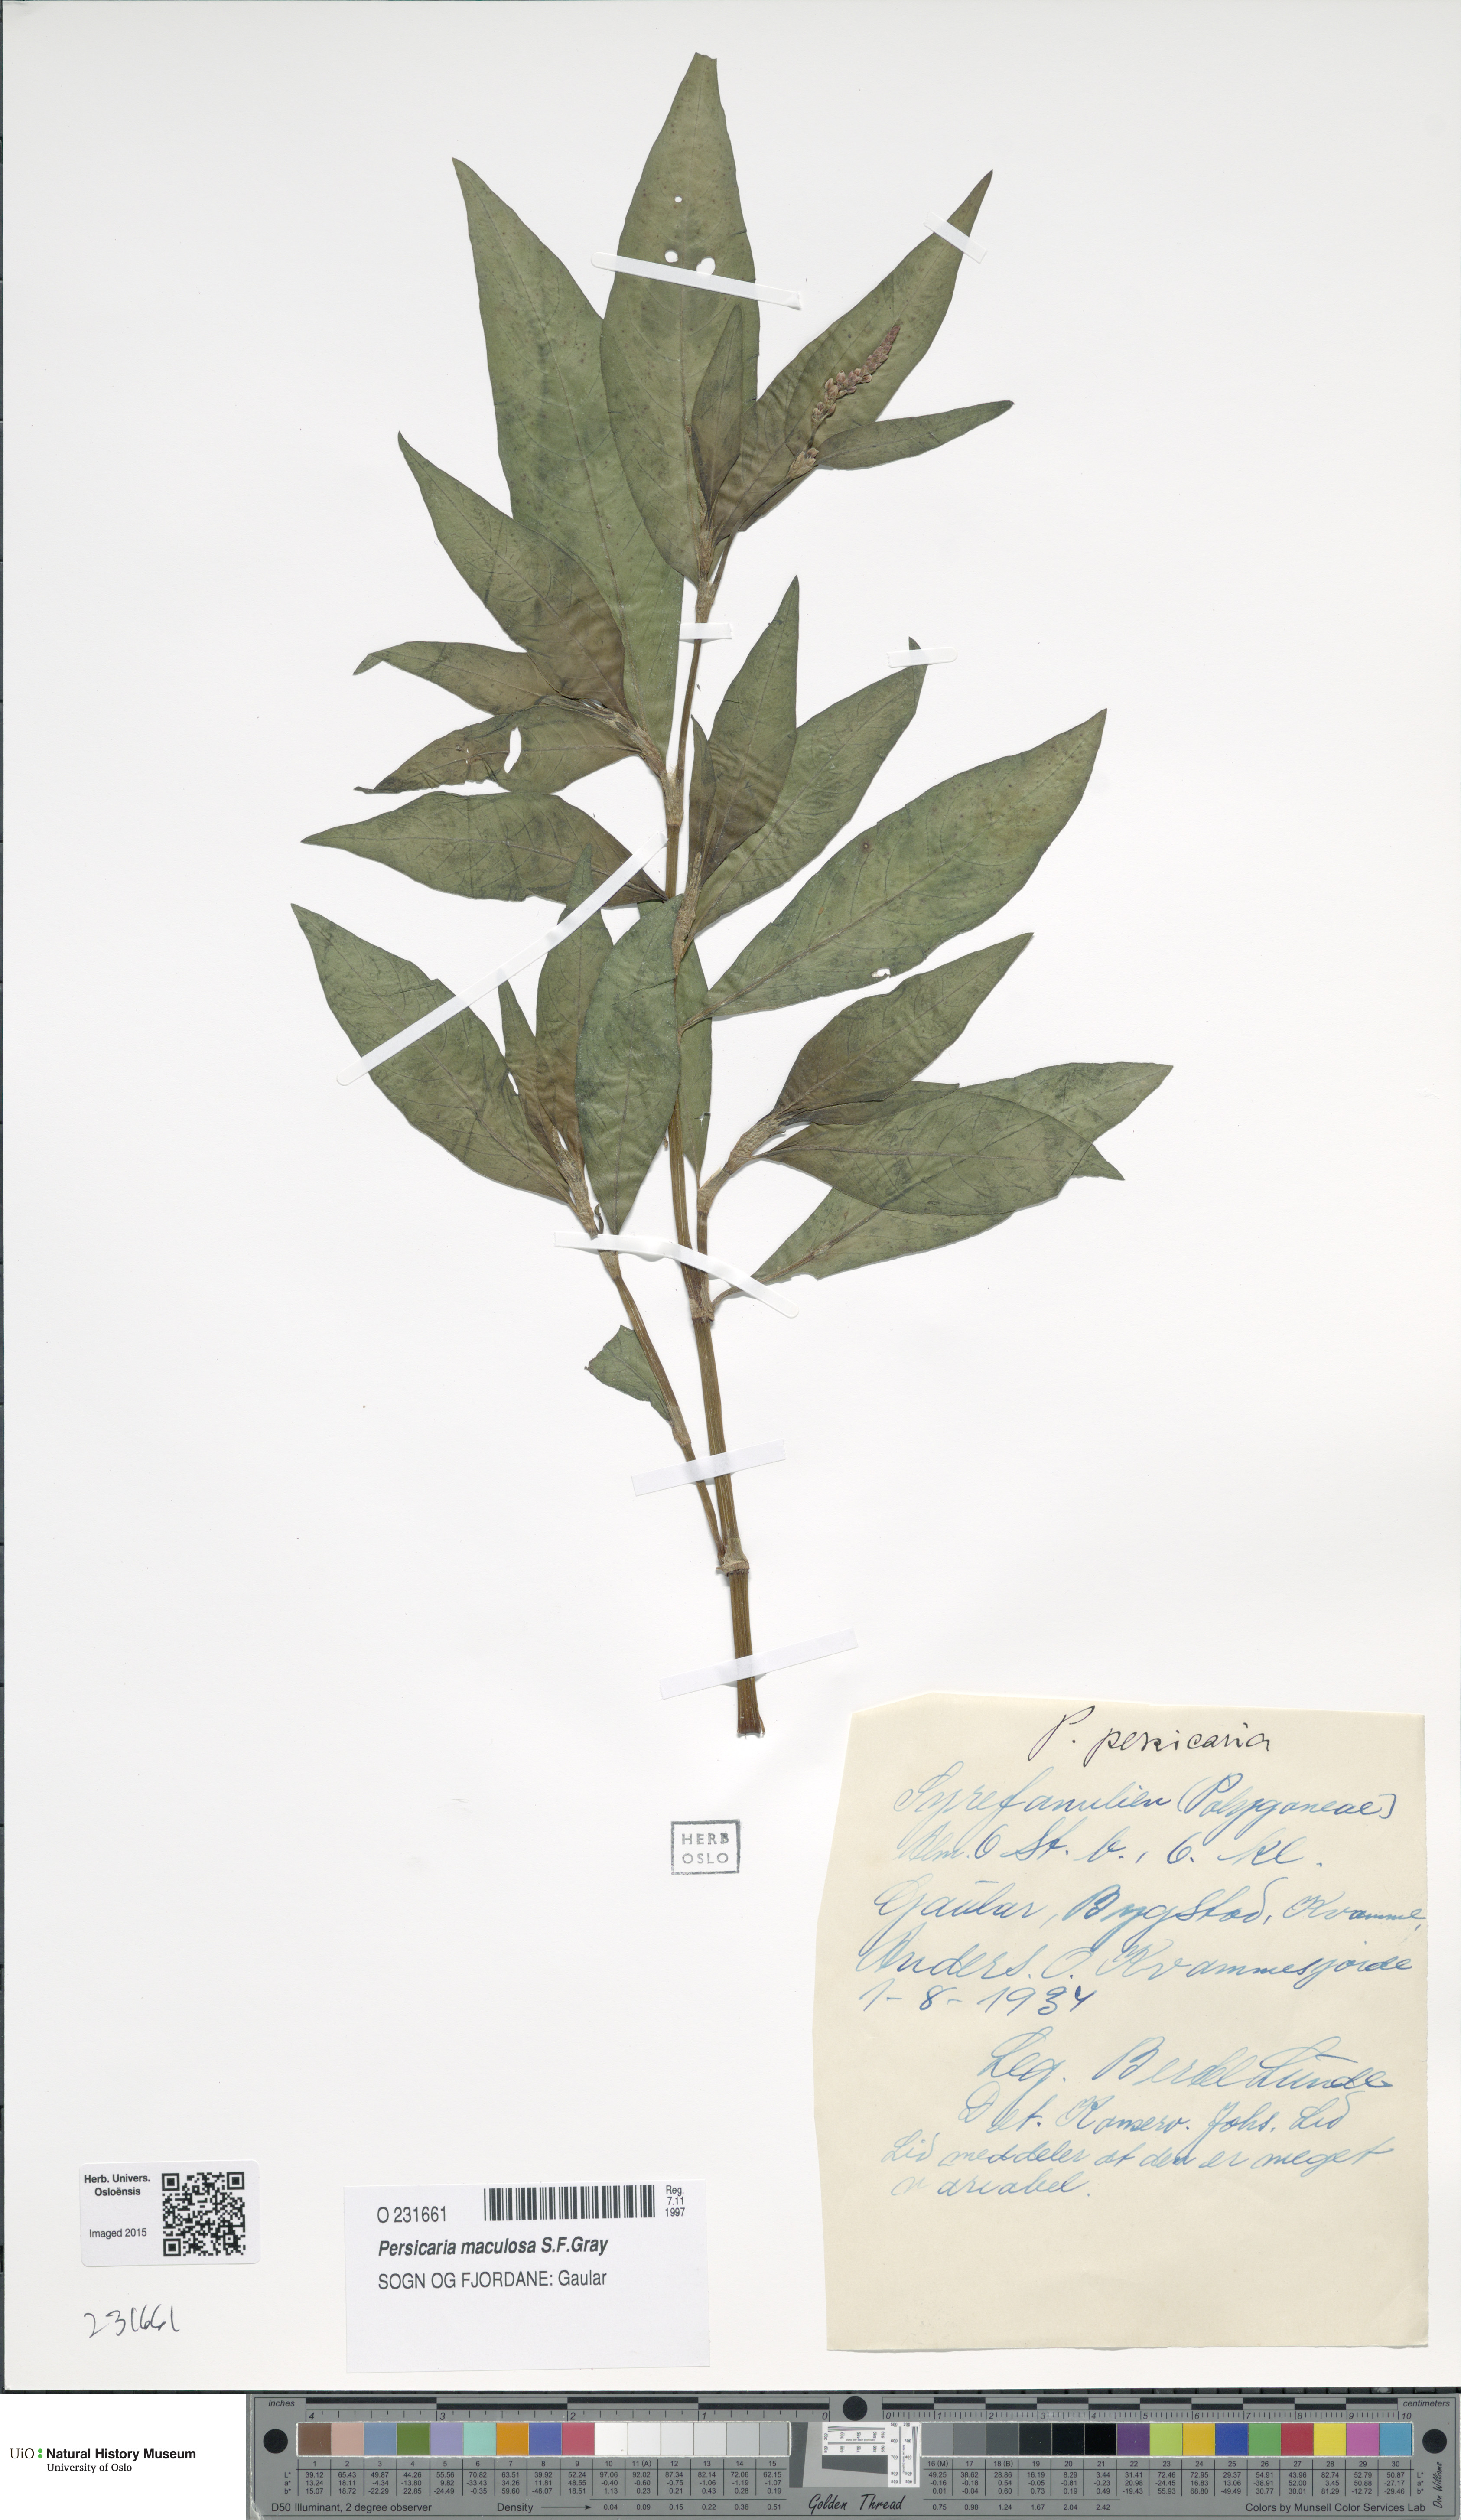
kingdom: Plantae
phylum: Tracheophyta
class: Magnoliopsida
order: Caryophyllales
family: Polygonaceae
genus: Persicaria
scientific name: Persicaria maculosa
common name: Redshank
